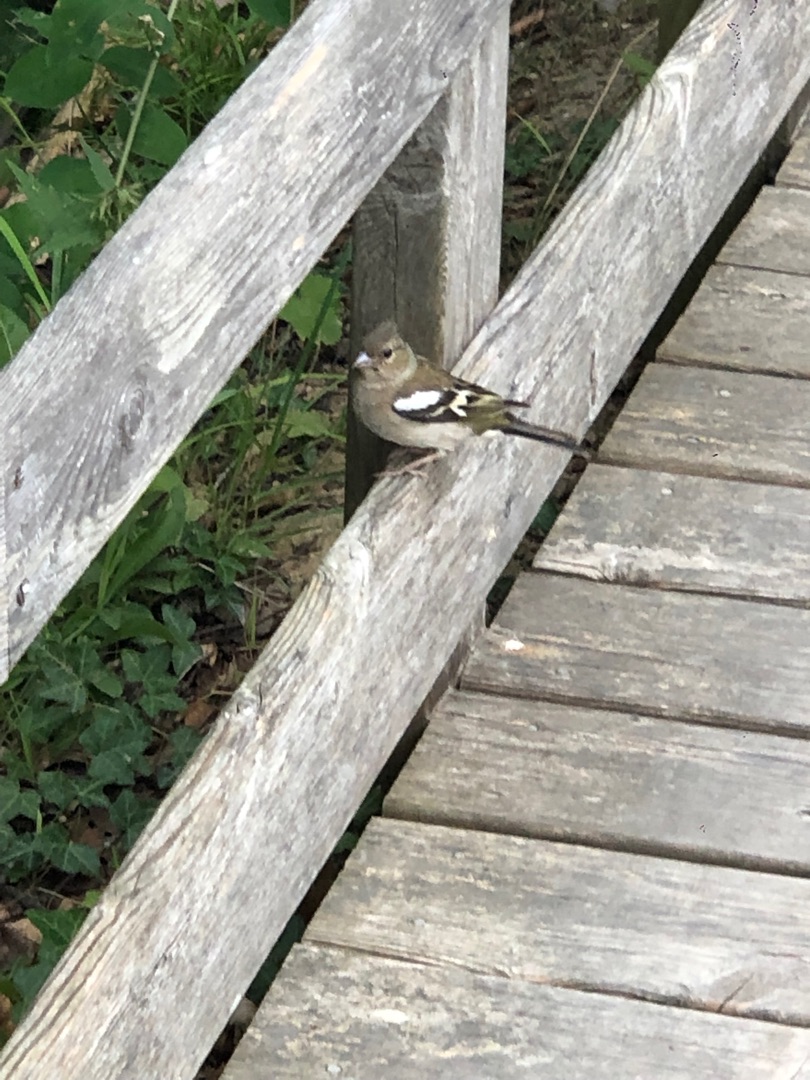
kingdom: Animalia
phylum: Chordata
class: Aves
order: Passeriformes
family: Fringillidae
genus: Fringilla
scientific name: Fringilla coelebs
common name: Bogfinke
